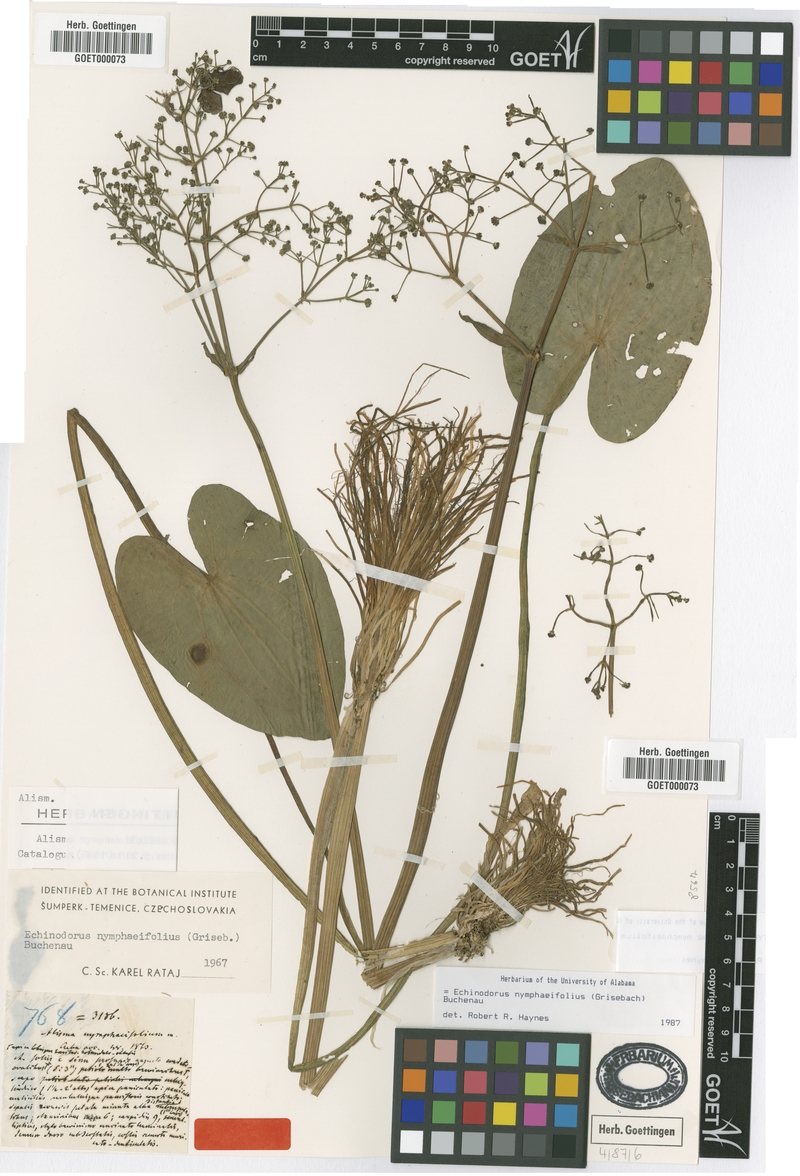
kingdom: Plantae
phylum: Tracheophyta
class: Liliopsida
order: Alismatales
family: Alismataceae
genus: Albidella
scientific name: Albidella nymphaeifolia
